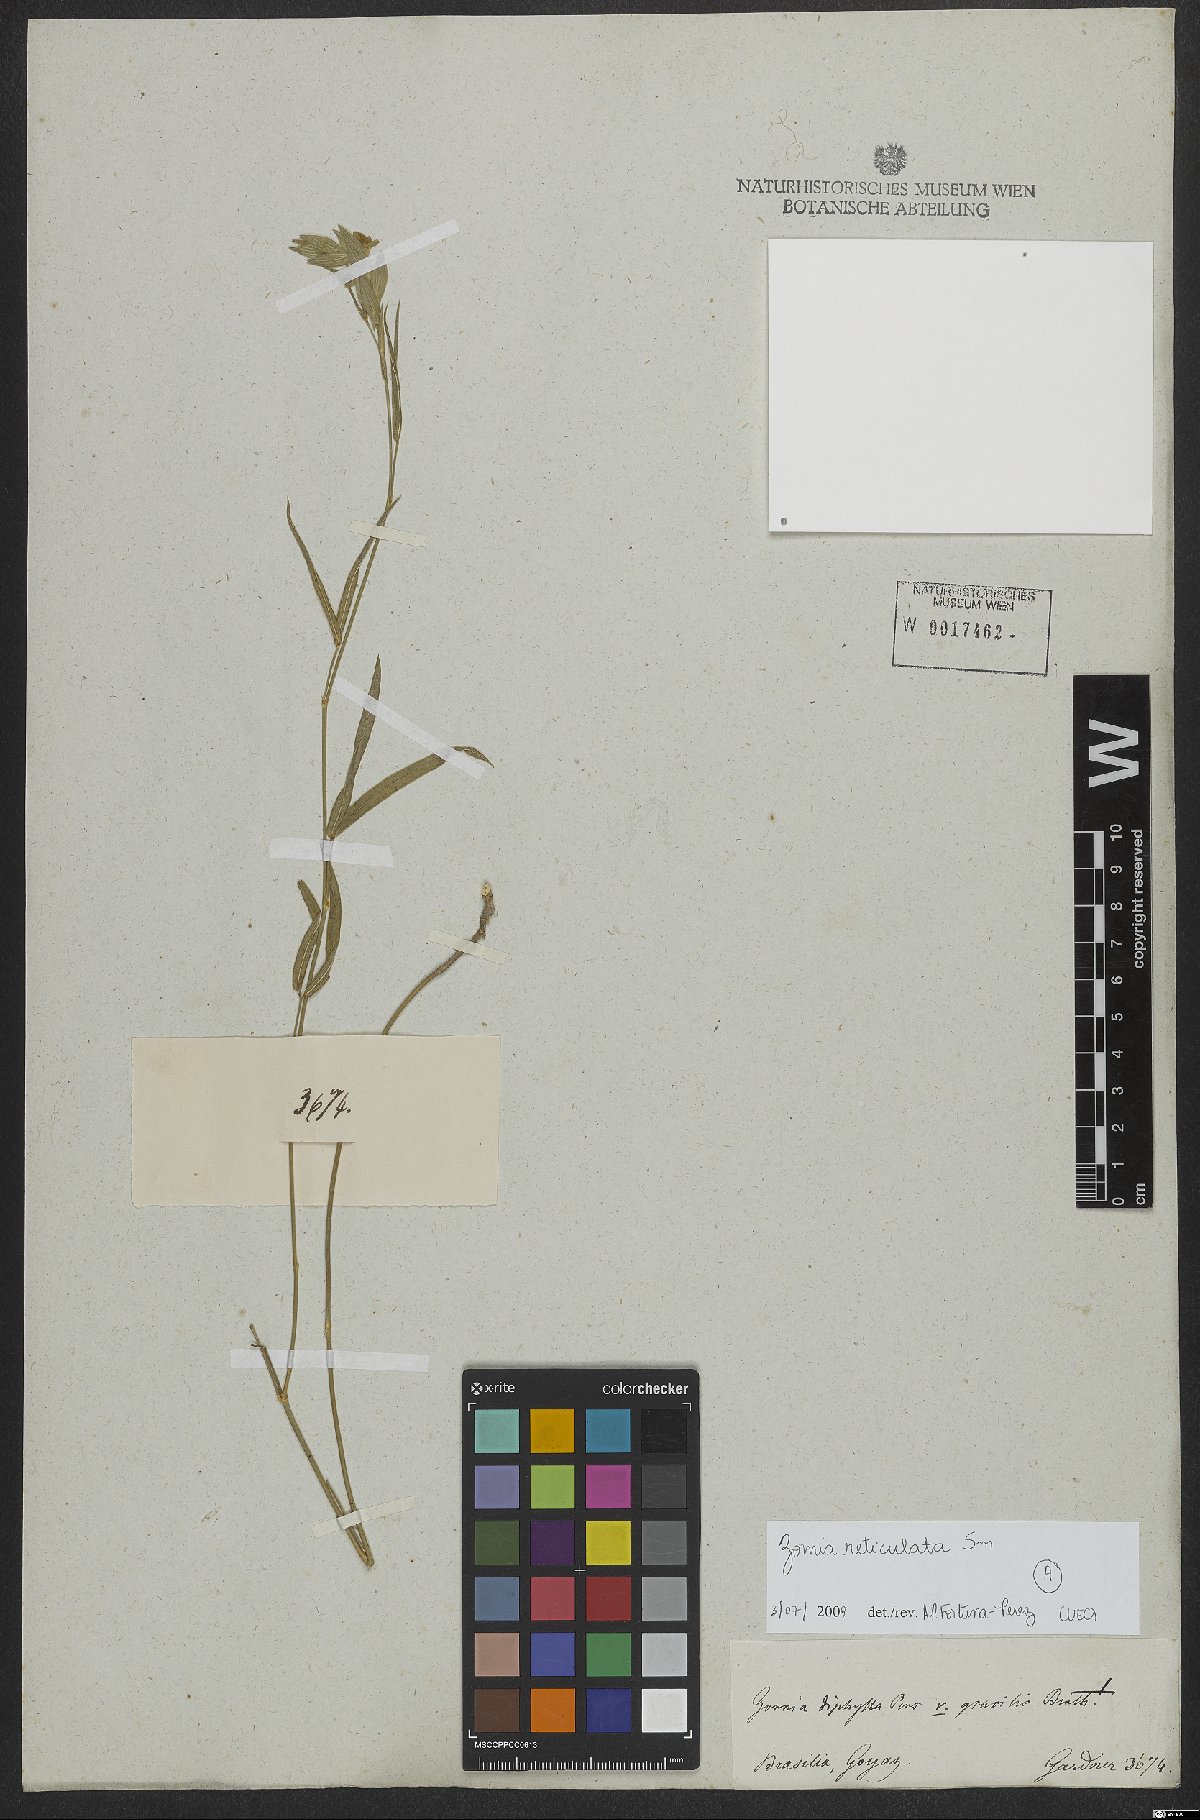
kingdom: Plantae
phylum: Tracheophyta
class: Magnoliopsida
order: Fabales
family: Fabaceae
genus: Zornia
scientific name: Zornia reticulata
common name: Reticulate viperina
